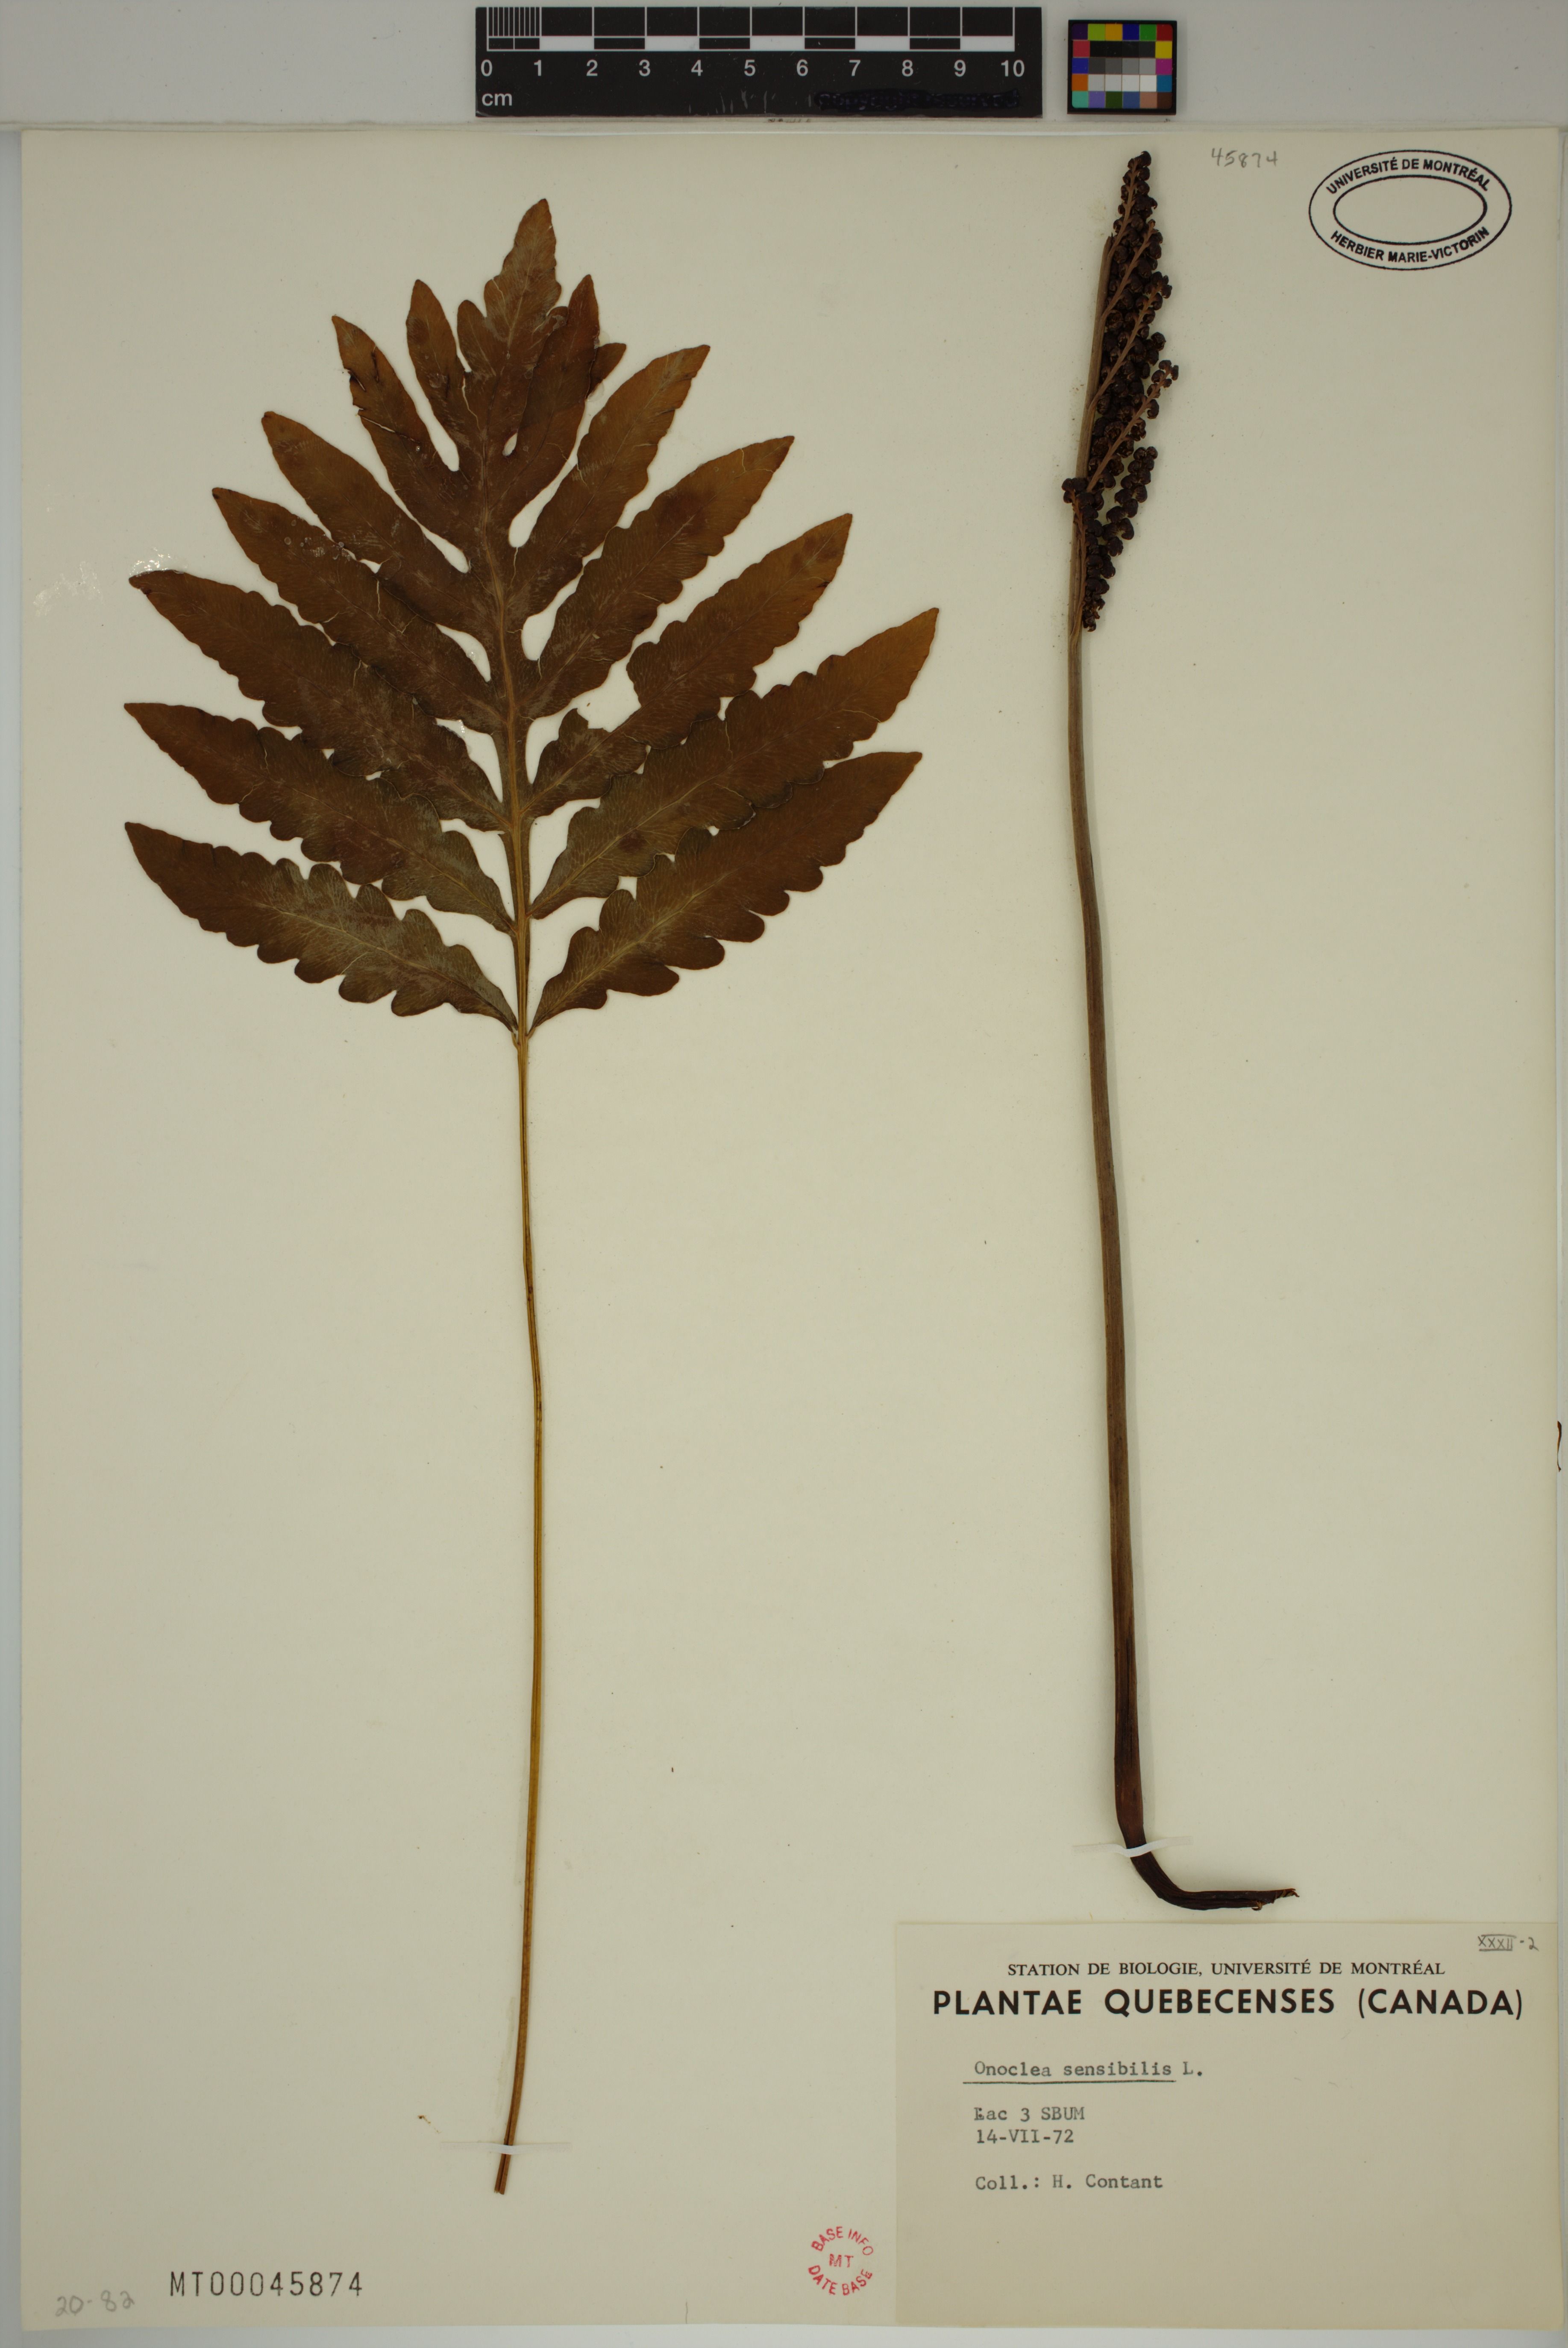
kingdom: Plantae
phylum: Tracheophyta
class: Polypodiopsida
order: Polypodiales
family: Onocleaceae
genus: Onoclea
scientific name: Onoclea sensibilis
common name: Sensitive fern
